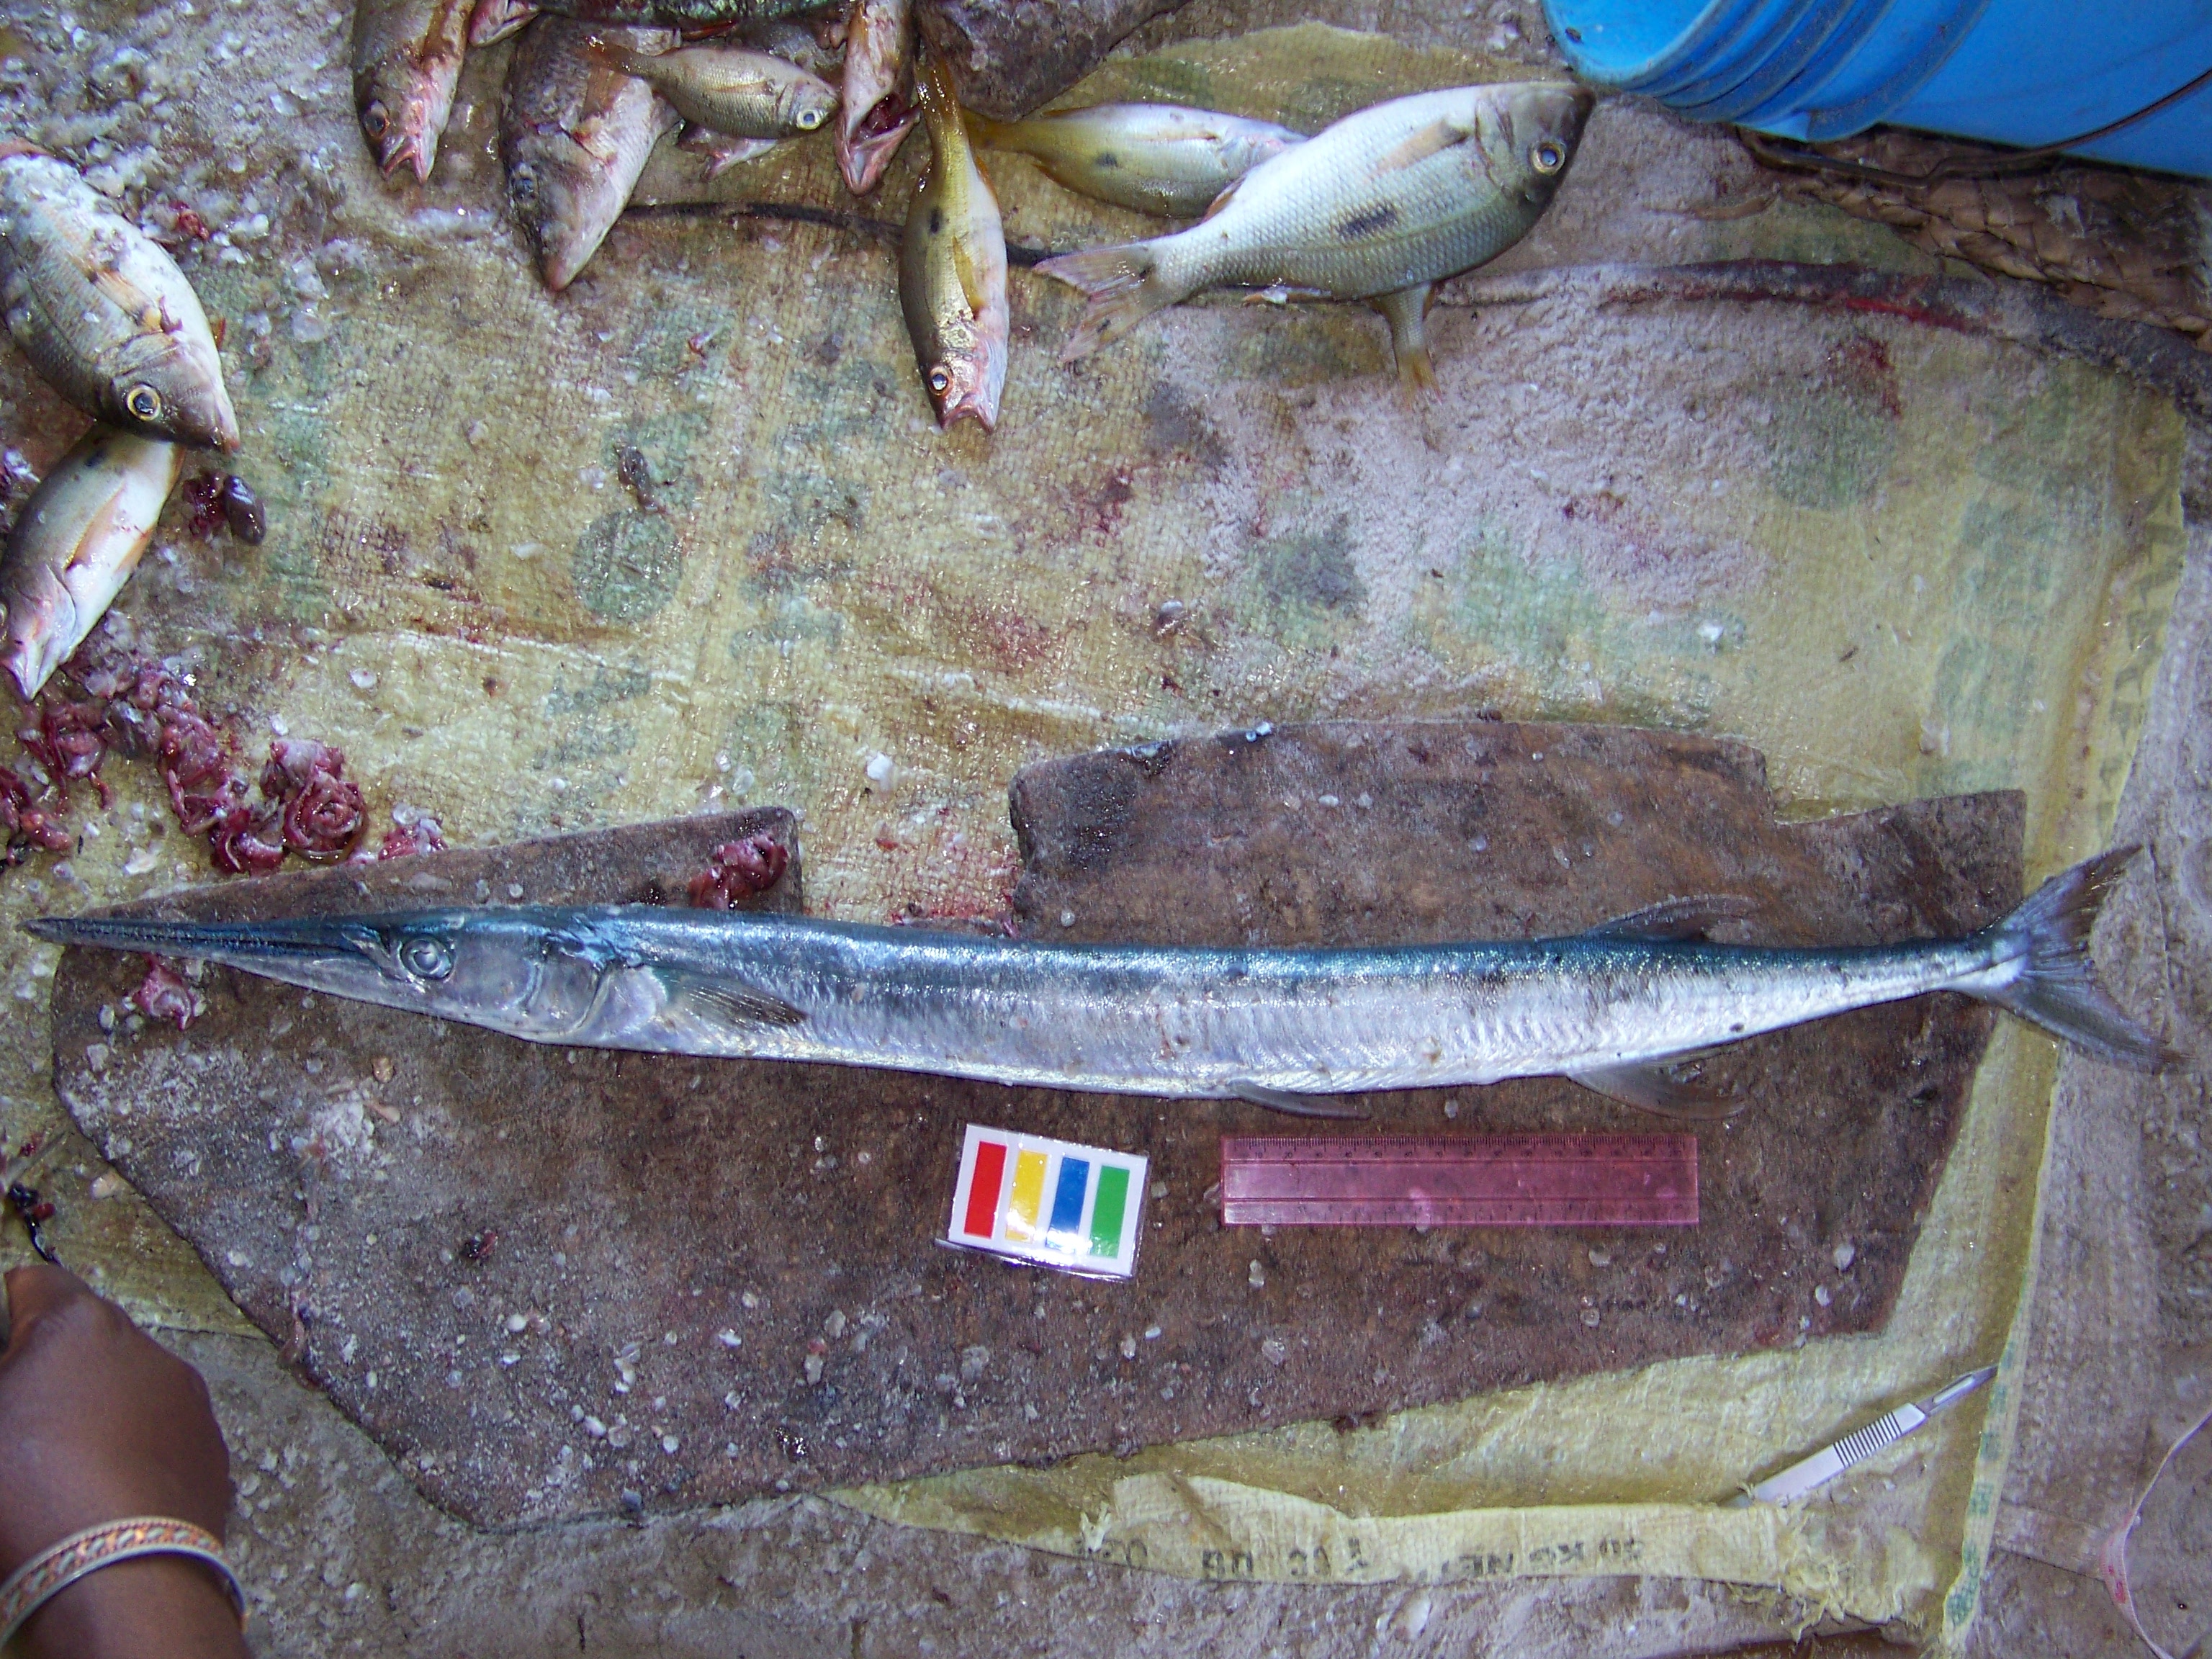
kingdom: Animalia
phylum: Chordata
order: Beloniformes
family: Belonidae
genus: Tylosurus
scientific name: Tylosurus crocodilus
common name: Houndfish
